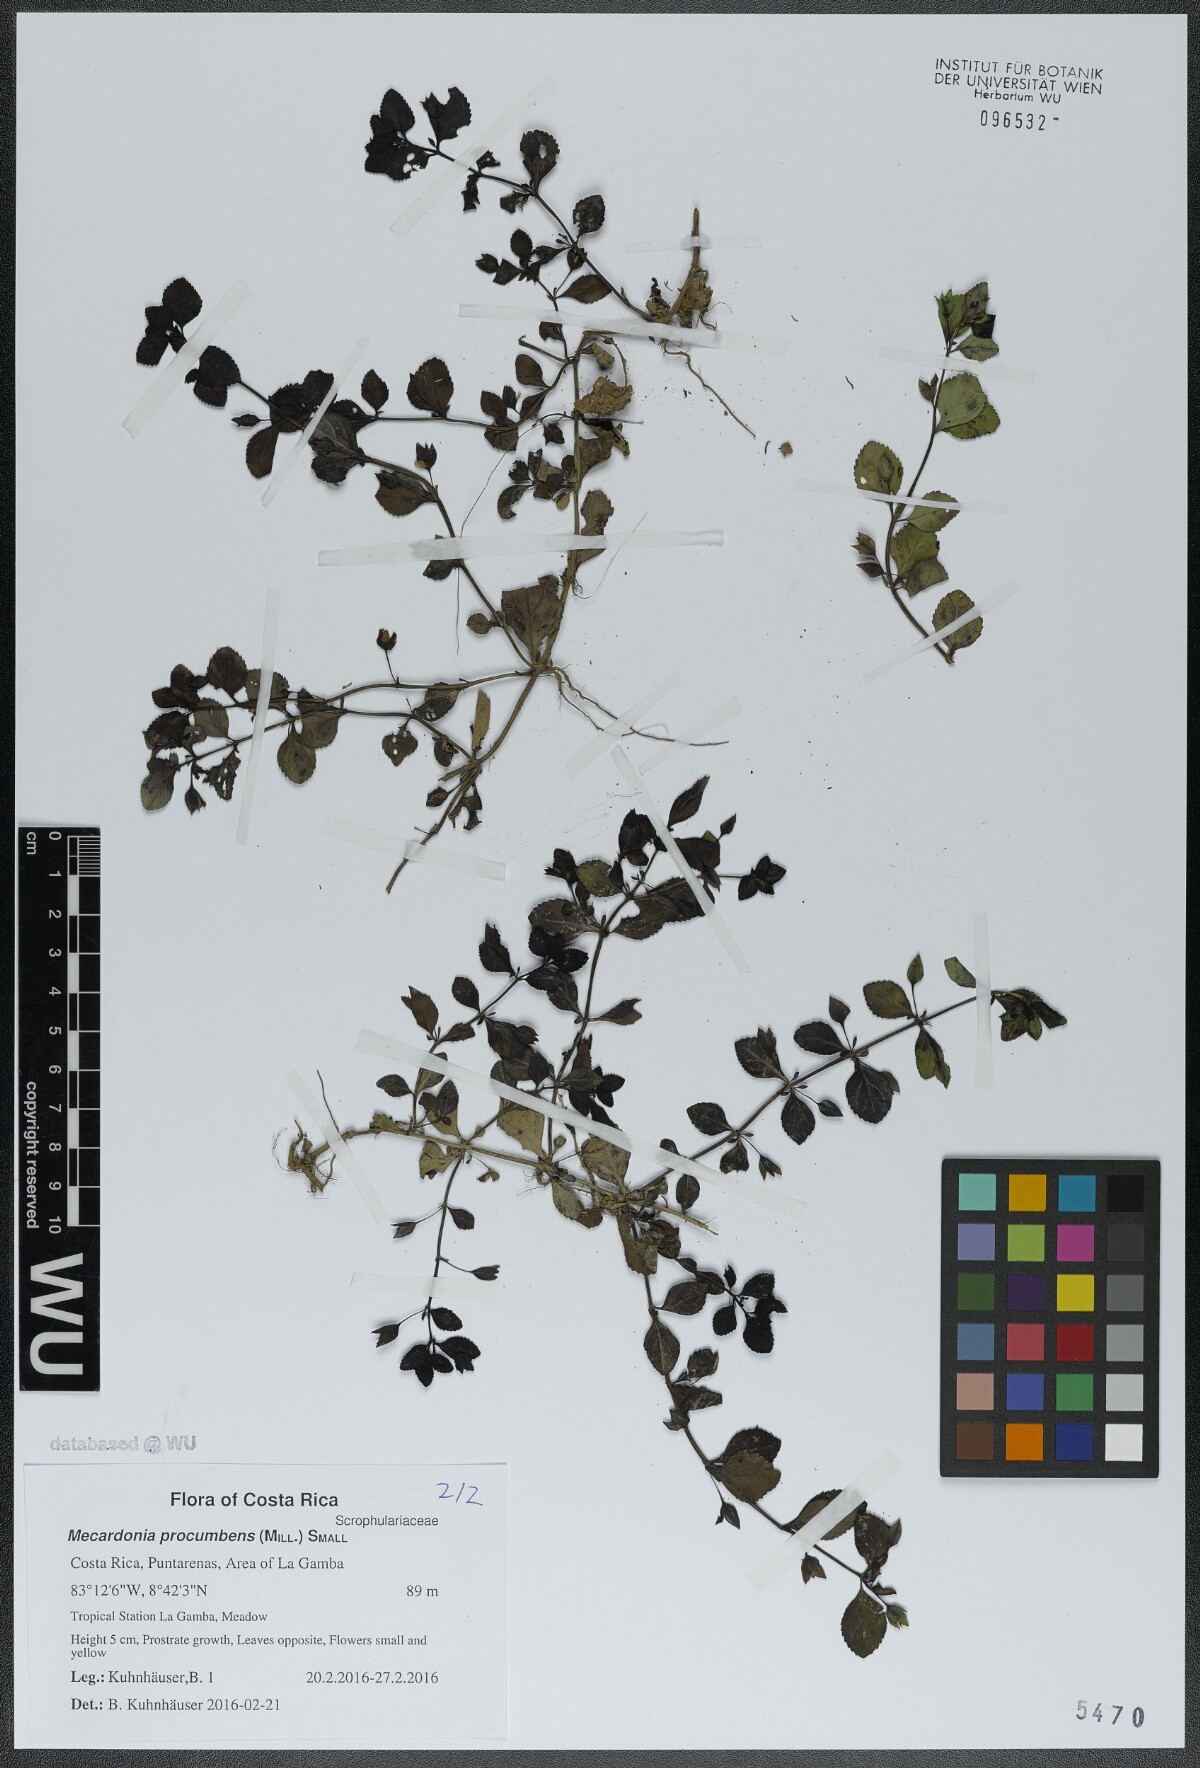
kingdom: Plantae
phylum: Tracheophyta
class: Magnoliopsida
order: Lamiales
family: Plantaginaceae
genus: Mecardonia
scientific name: Mecardonia procumbens
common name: Baby jump-up
